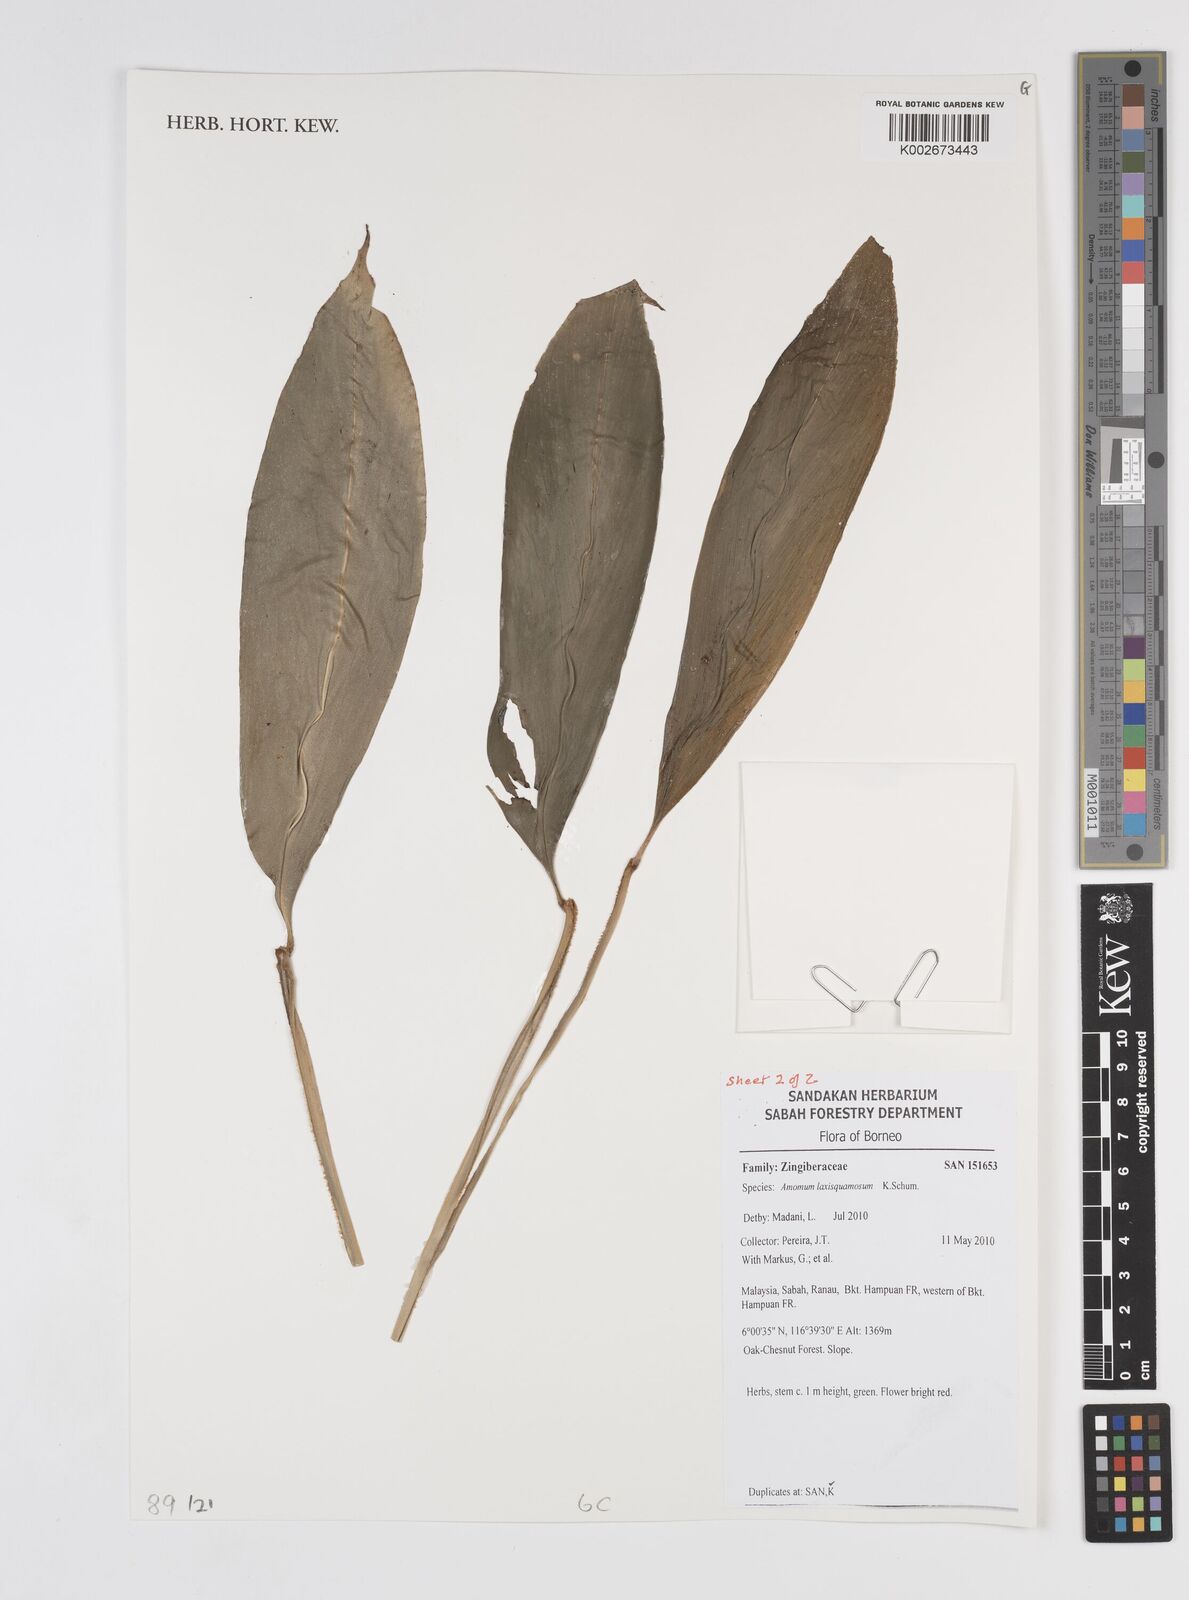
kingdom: Plantae
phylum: Tracheophyta
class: Liliopsida
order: Zingiberales
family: Zingiberaceae
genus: Sundamomum
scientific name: Sundamomum laxesquamosum
